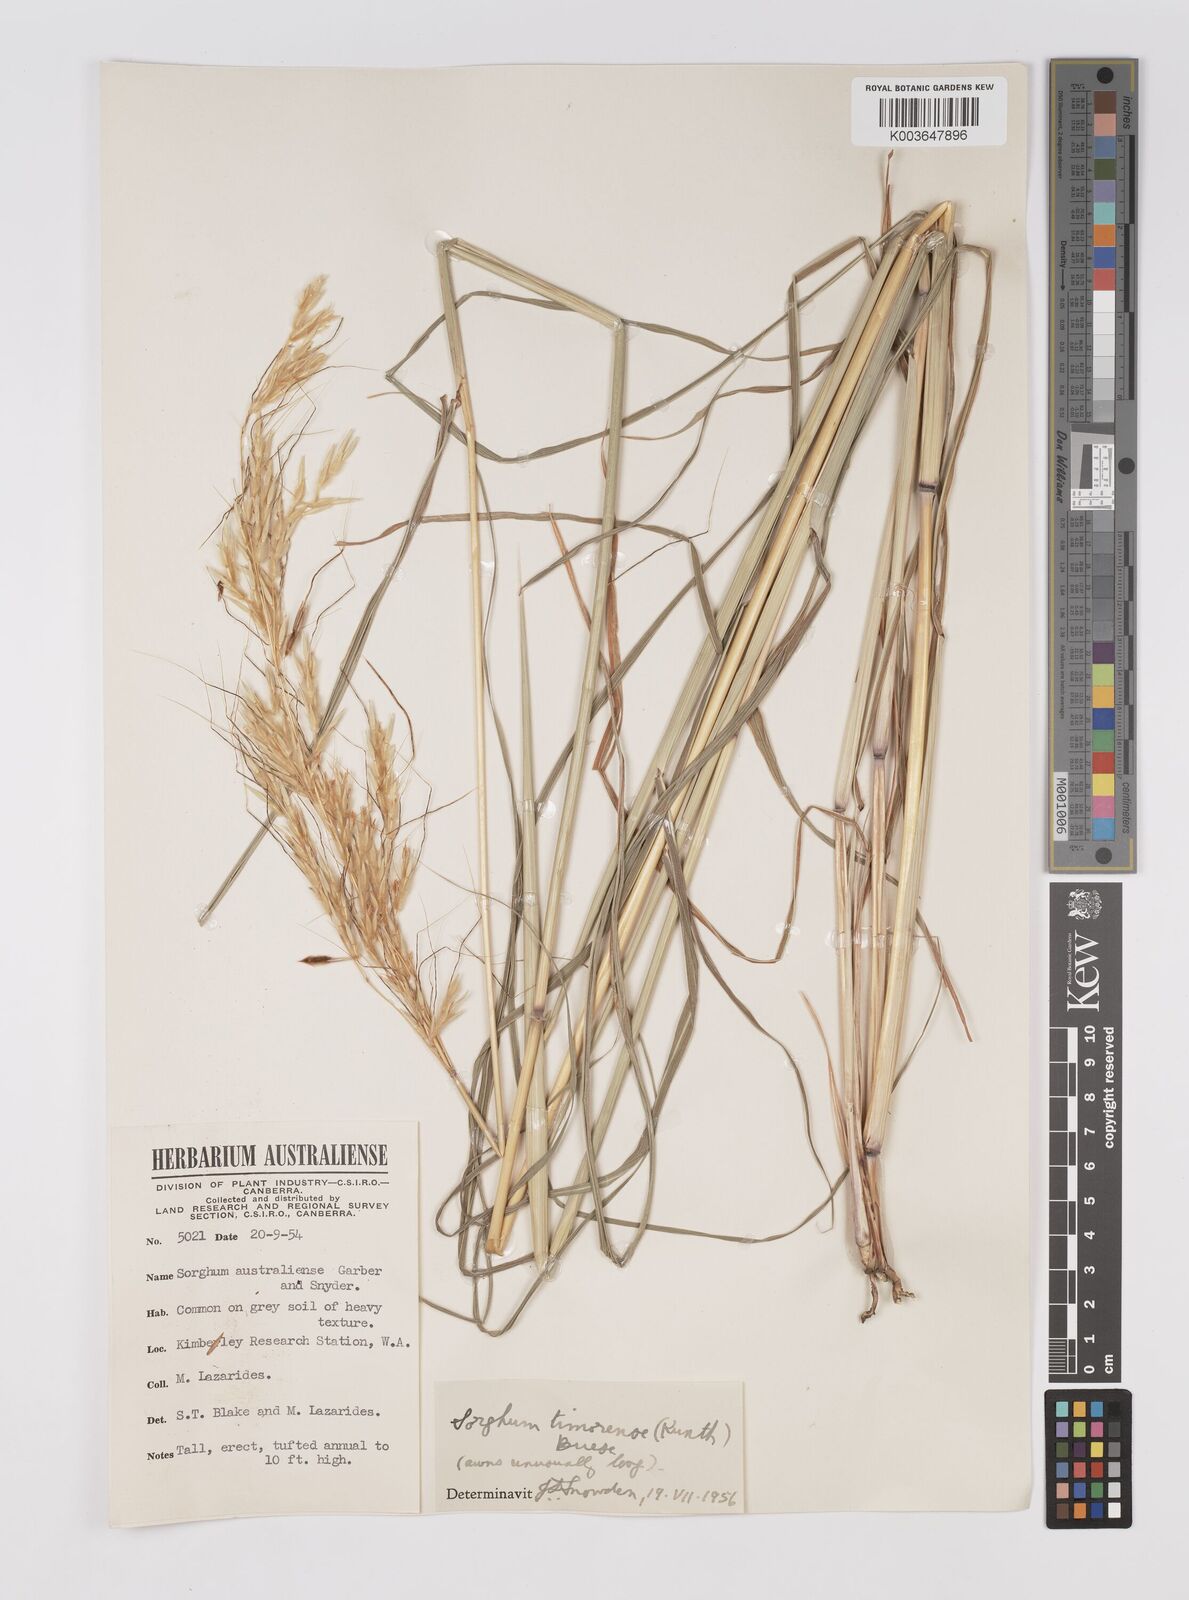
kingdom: Plantae
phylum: Tracheophyta
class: Liliopsida
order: Poales
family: Poaceae
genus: Sarga
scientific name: Sarga timorensis
